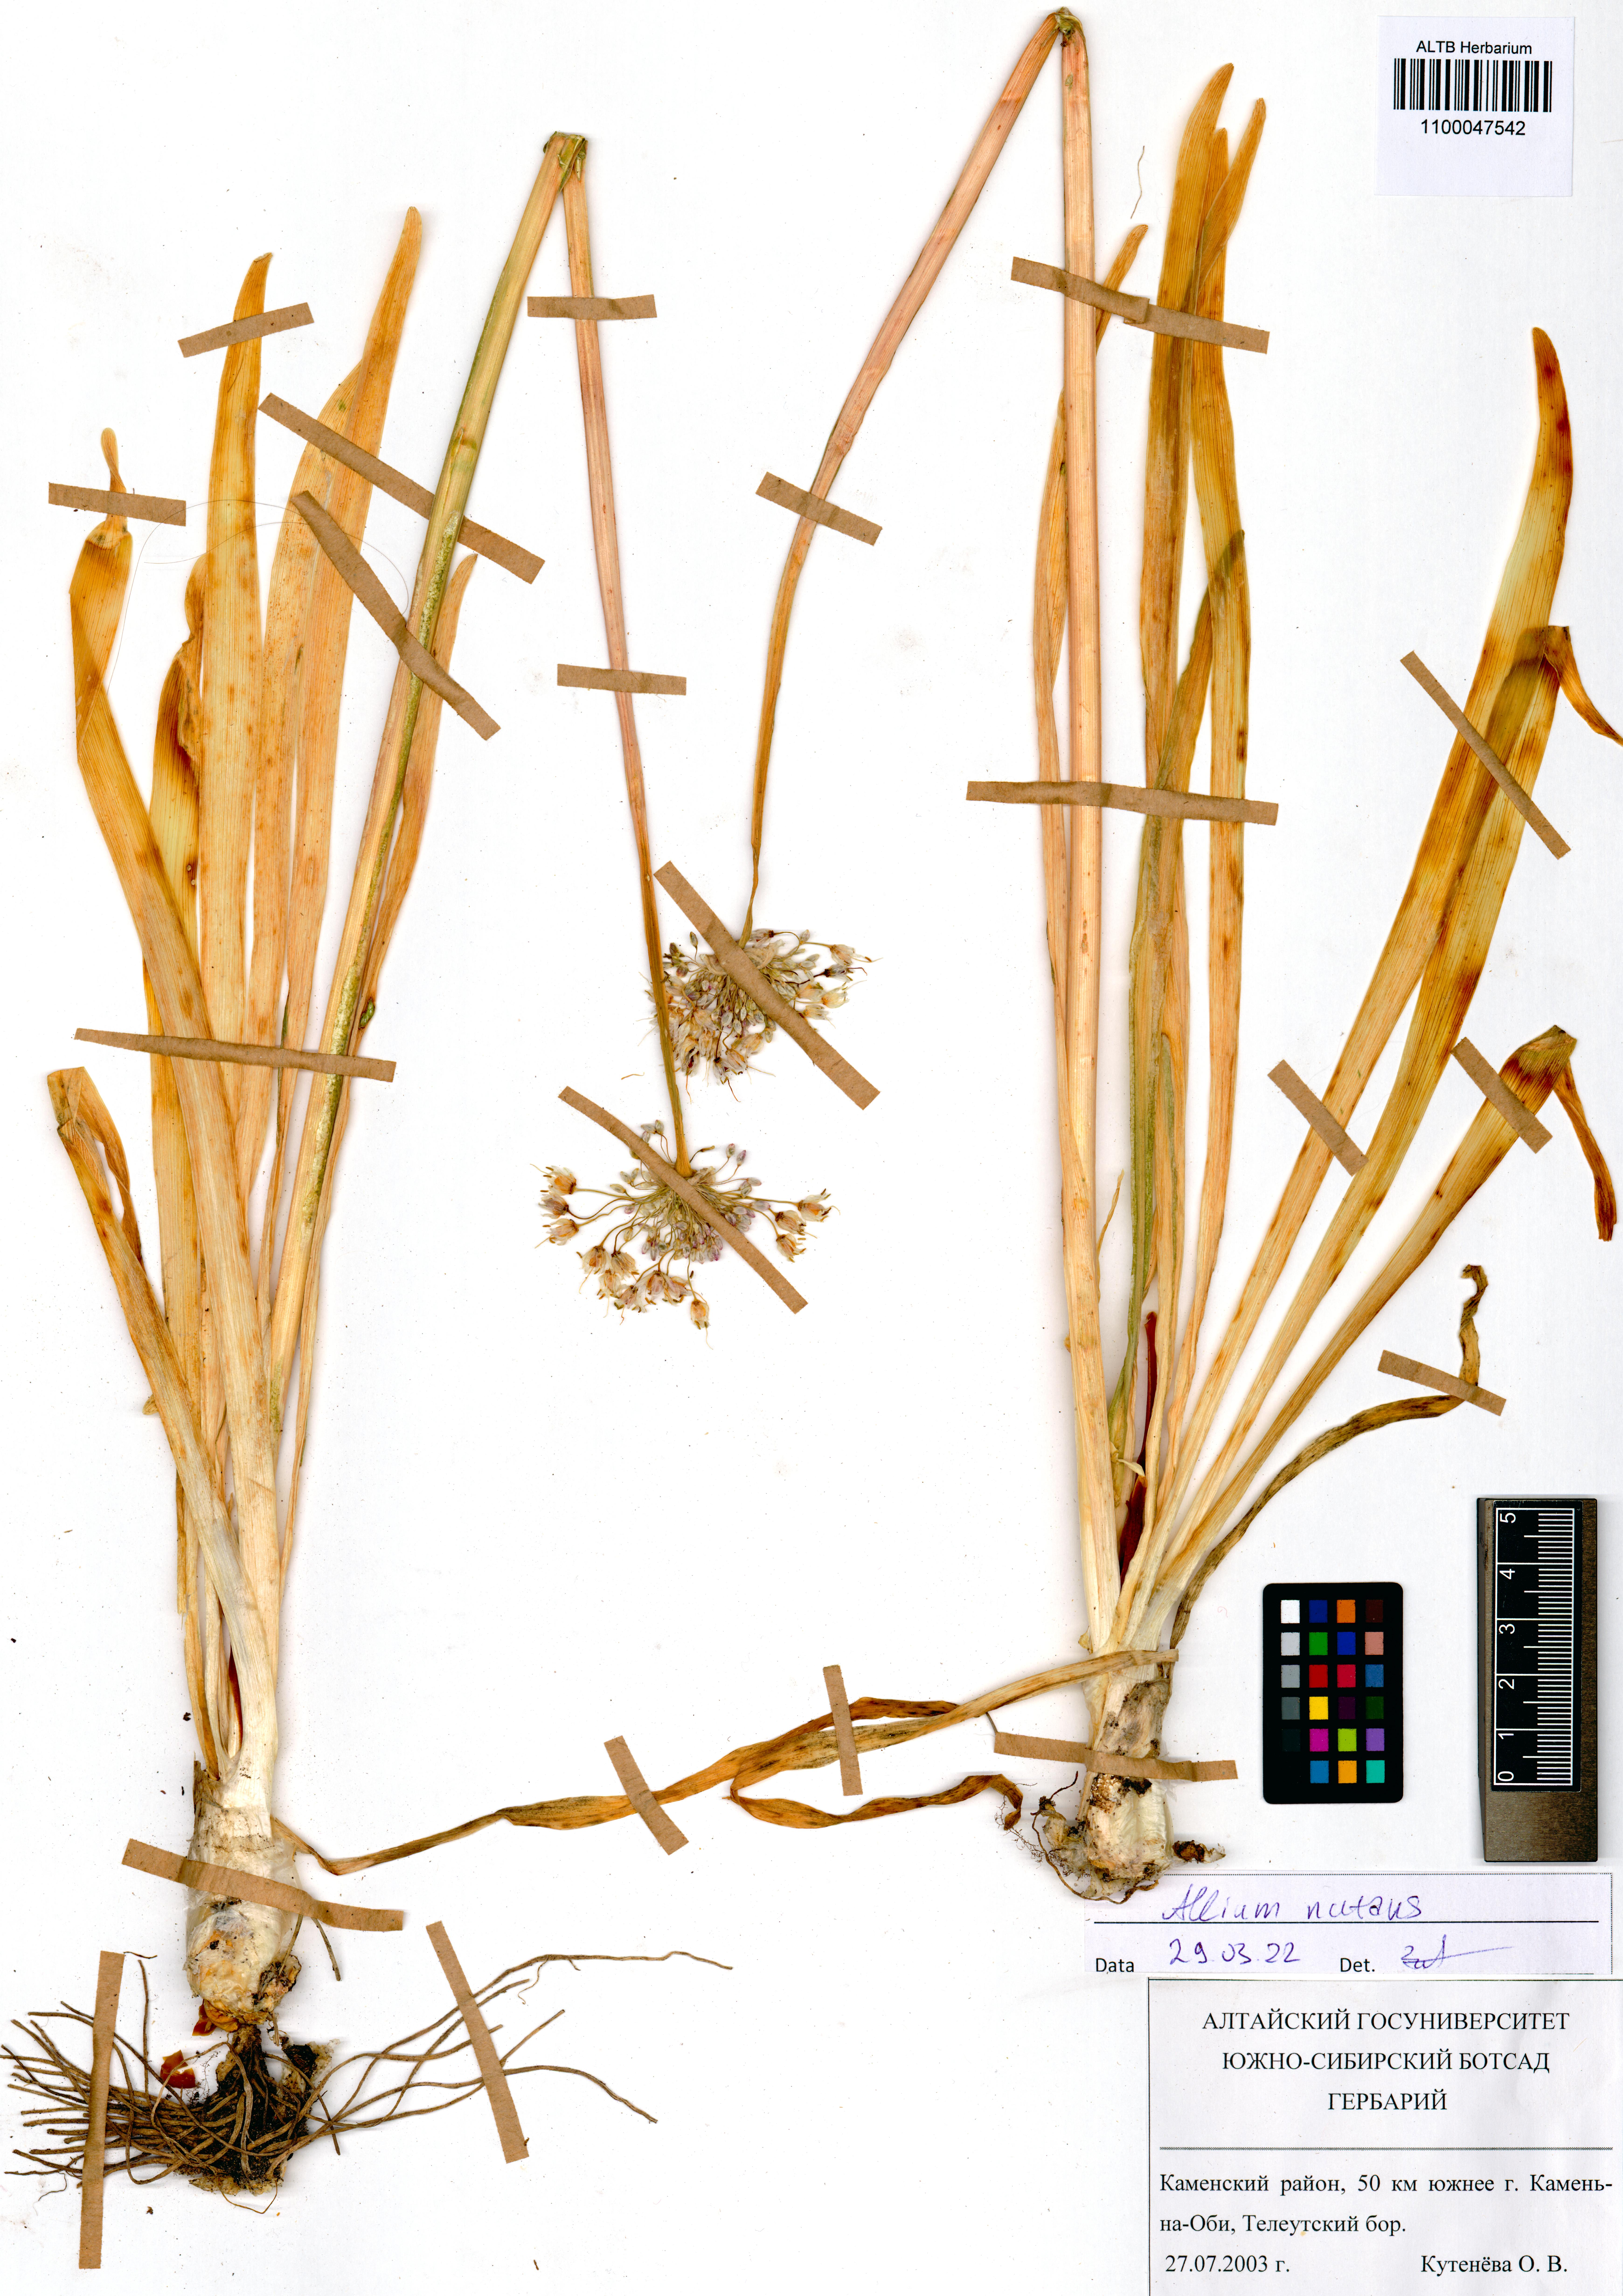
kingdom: Plantae
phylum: Tracheophyta
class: Liliopsida
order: Asparagales
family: Amaryllidaceae
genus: Allium
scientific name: Allium nutans
